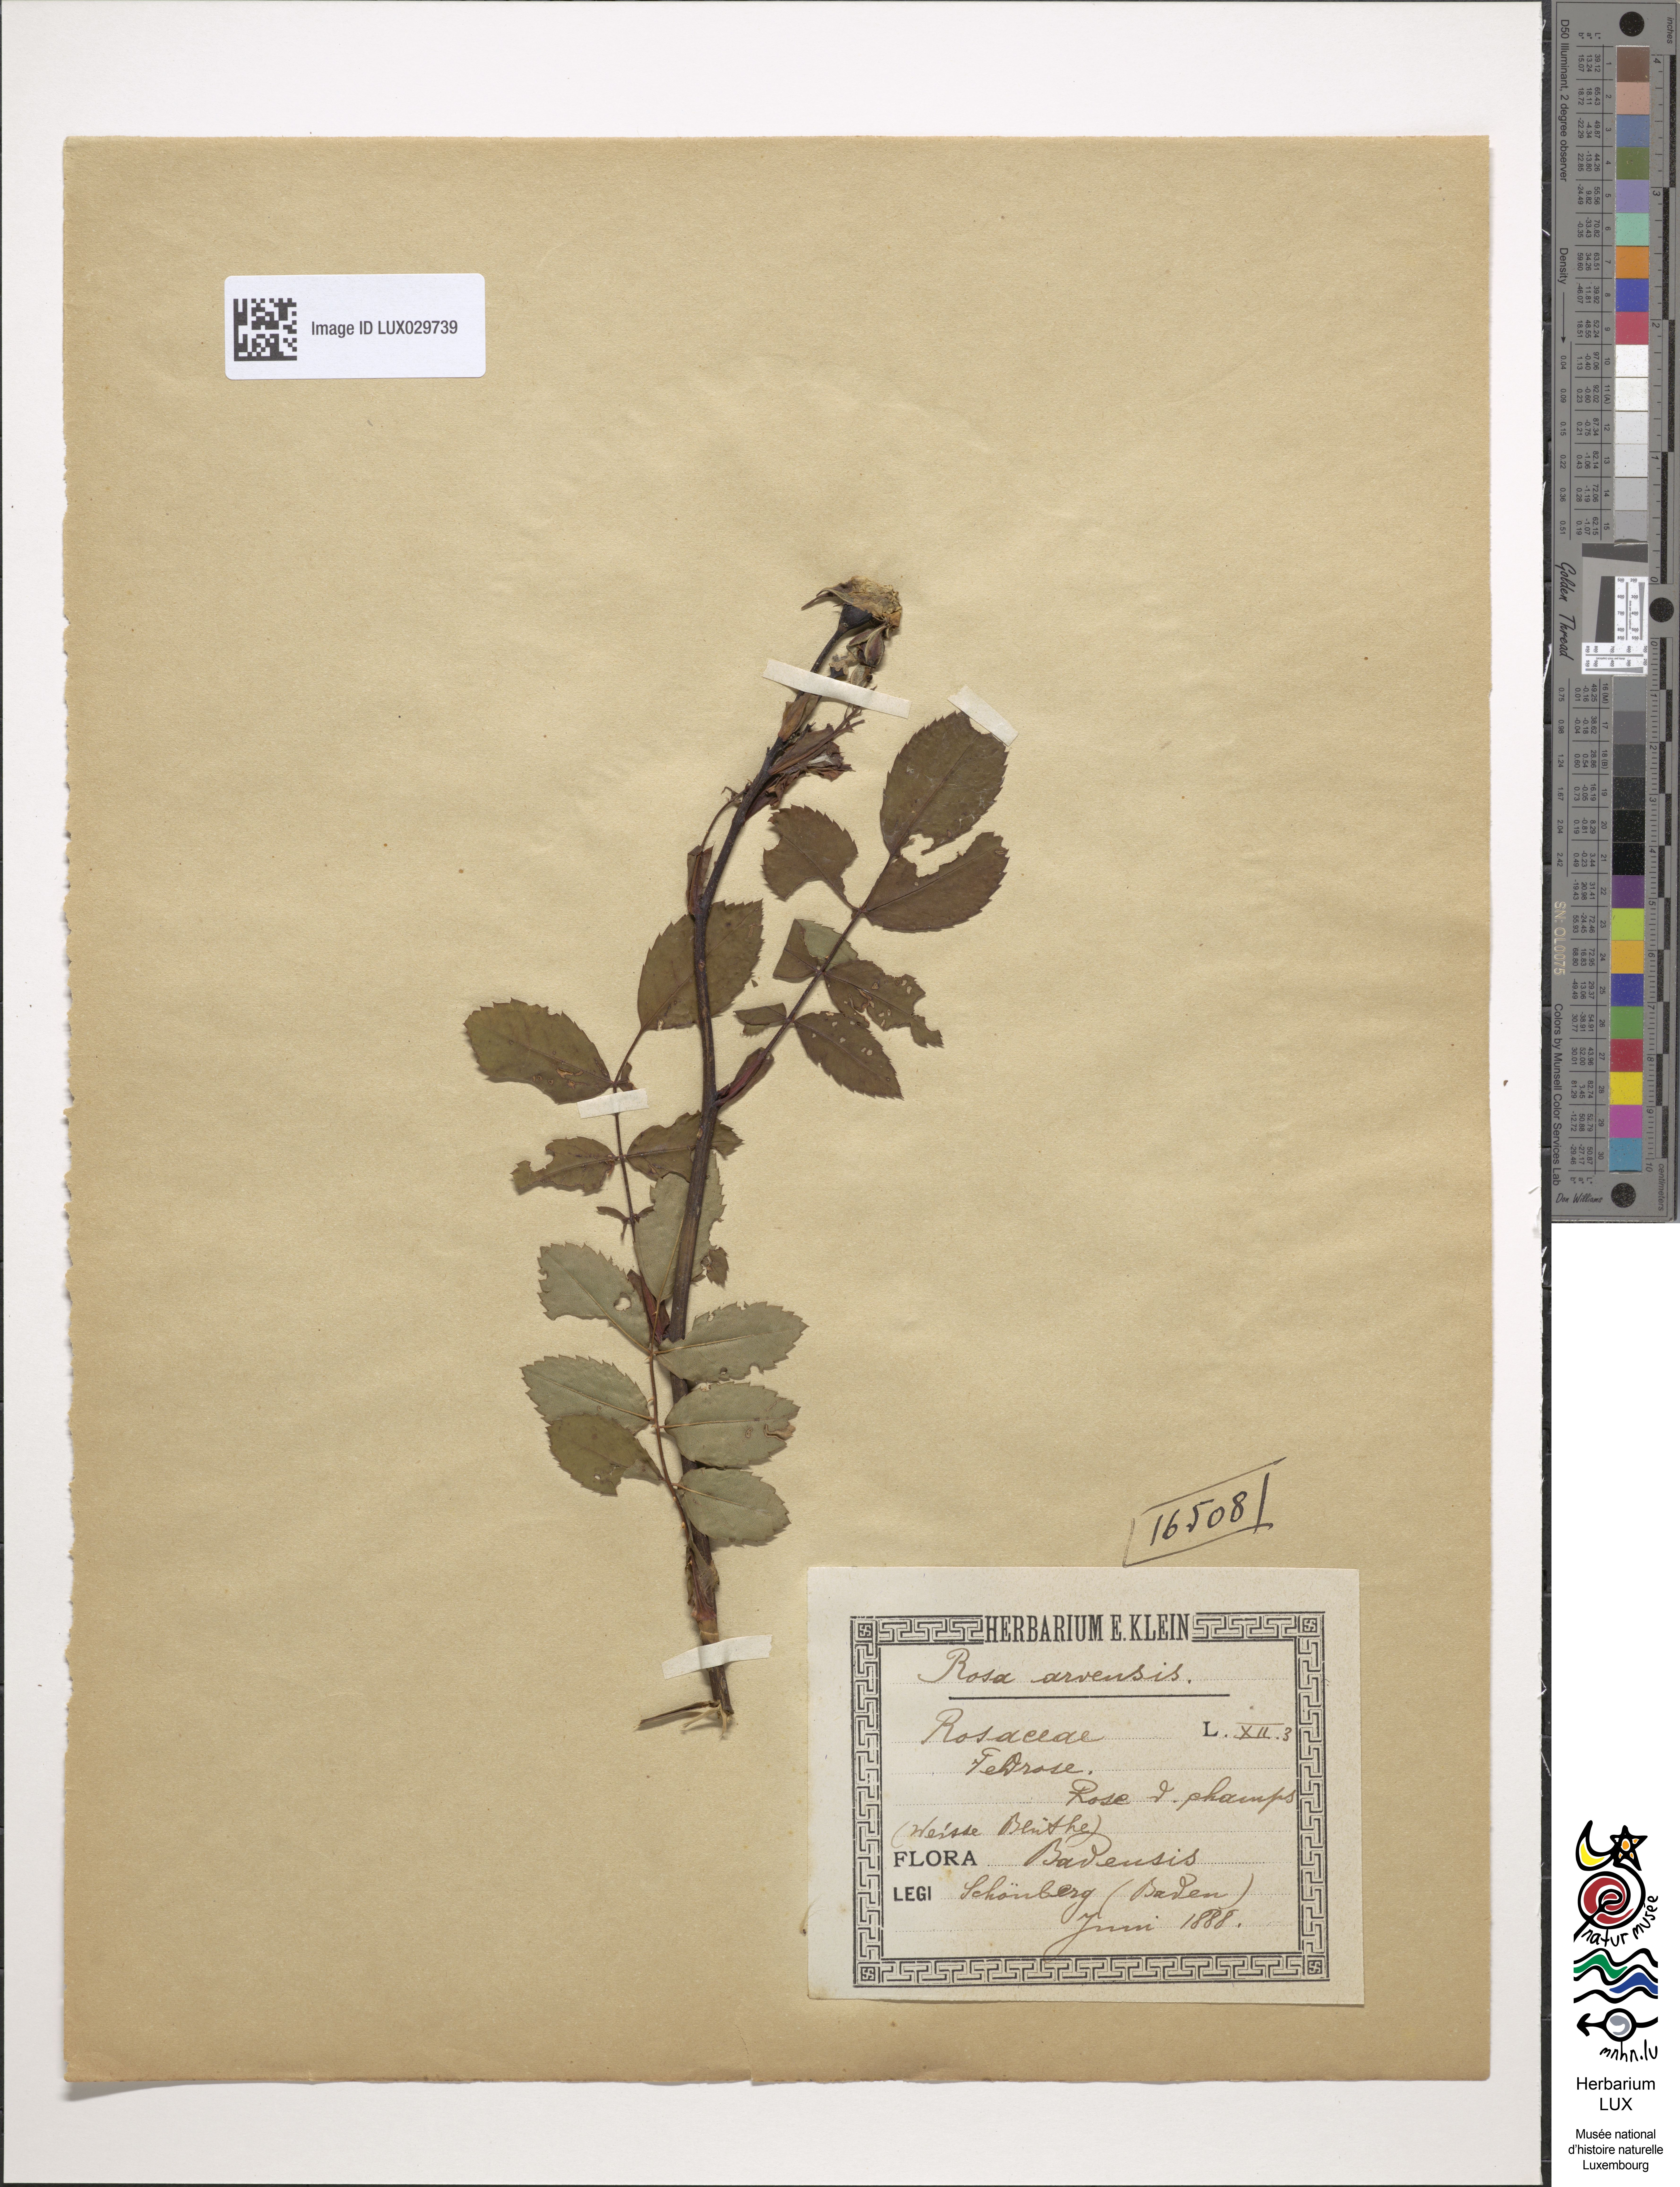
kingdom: Plantae
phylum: Tracheophyta
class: Magnoliopsida
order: Rosales
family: Rosaceae
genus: Rosa
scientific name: Rosa arvensis
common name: Field rose
